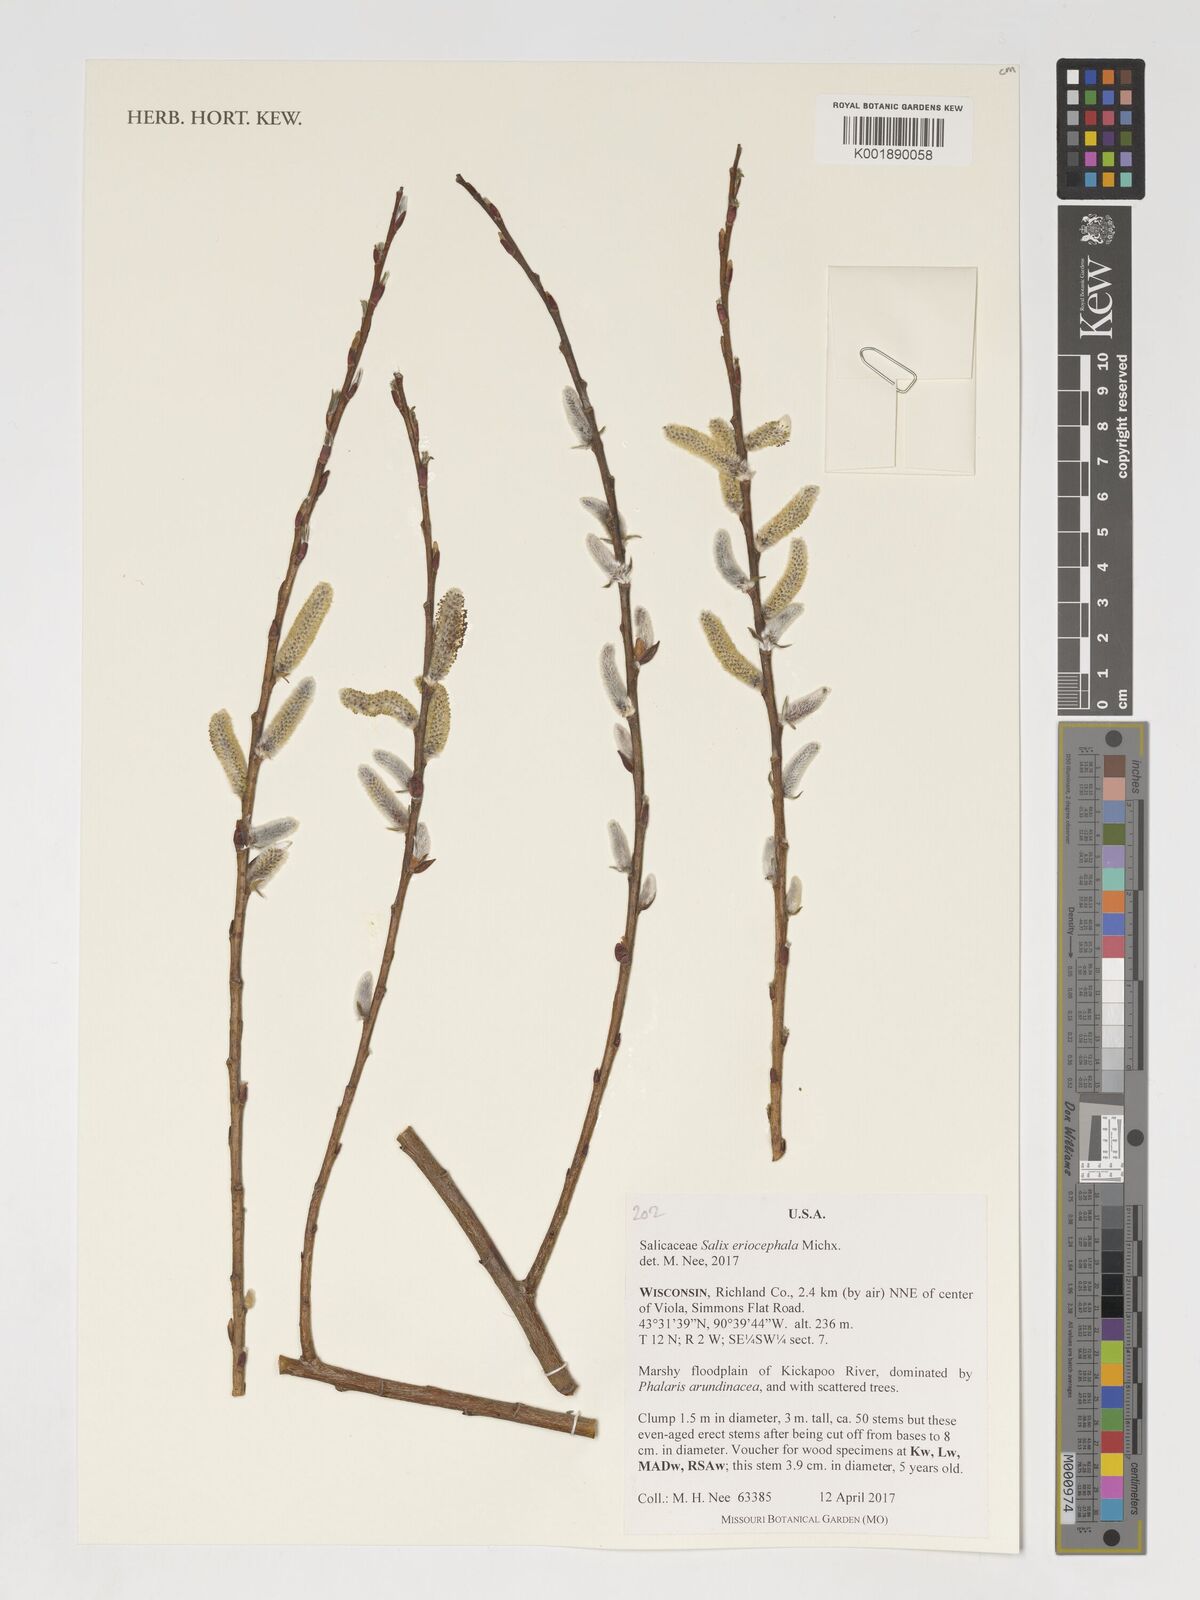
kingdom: Plantae
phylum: Tracheophyta
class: Magnoliopsida
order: Malpighiales
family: Salicaceae
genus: Salix
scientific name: Salix eriocephala
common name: Heart-leaved willow
